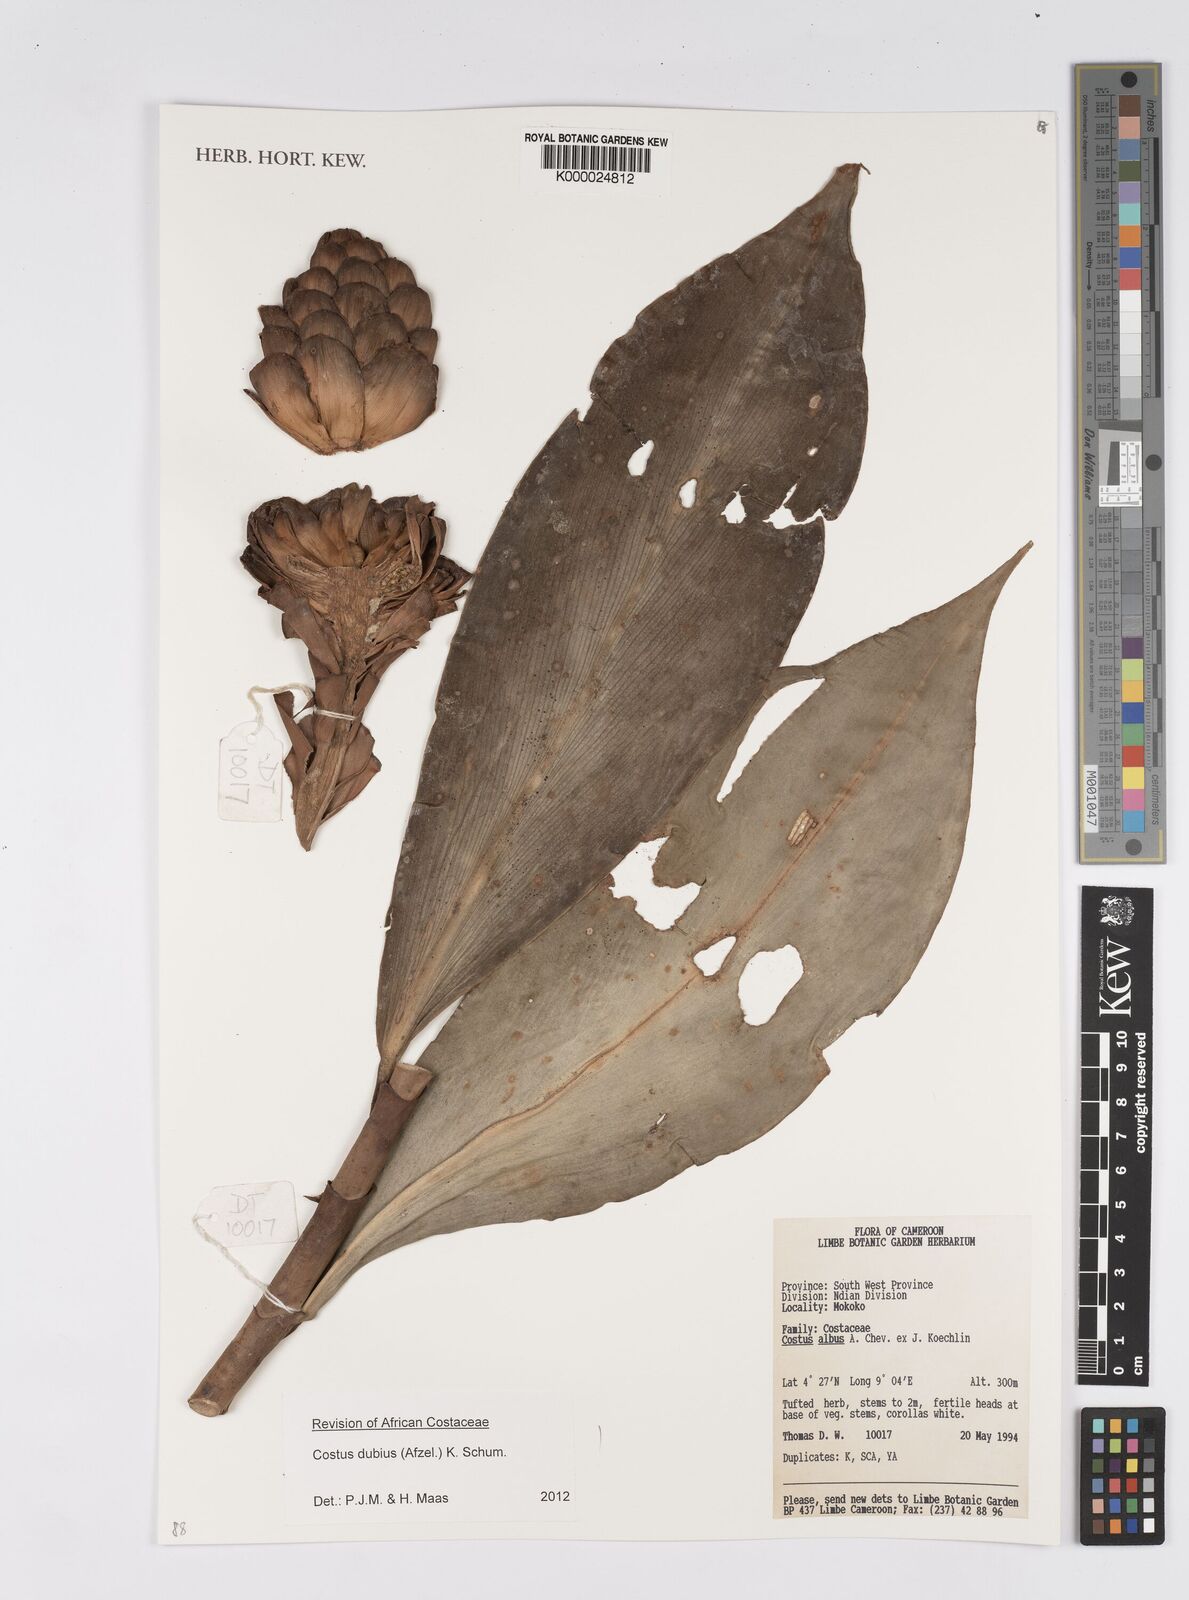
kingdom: Plantae
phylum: Tracheophyta
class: Liliopsida
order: Zingiberales
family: Costaceae
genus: Costus
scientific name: Costus dubius
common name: Costus
